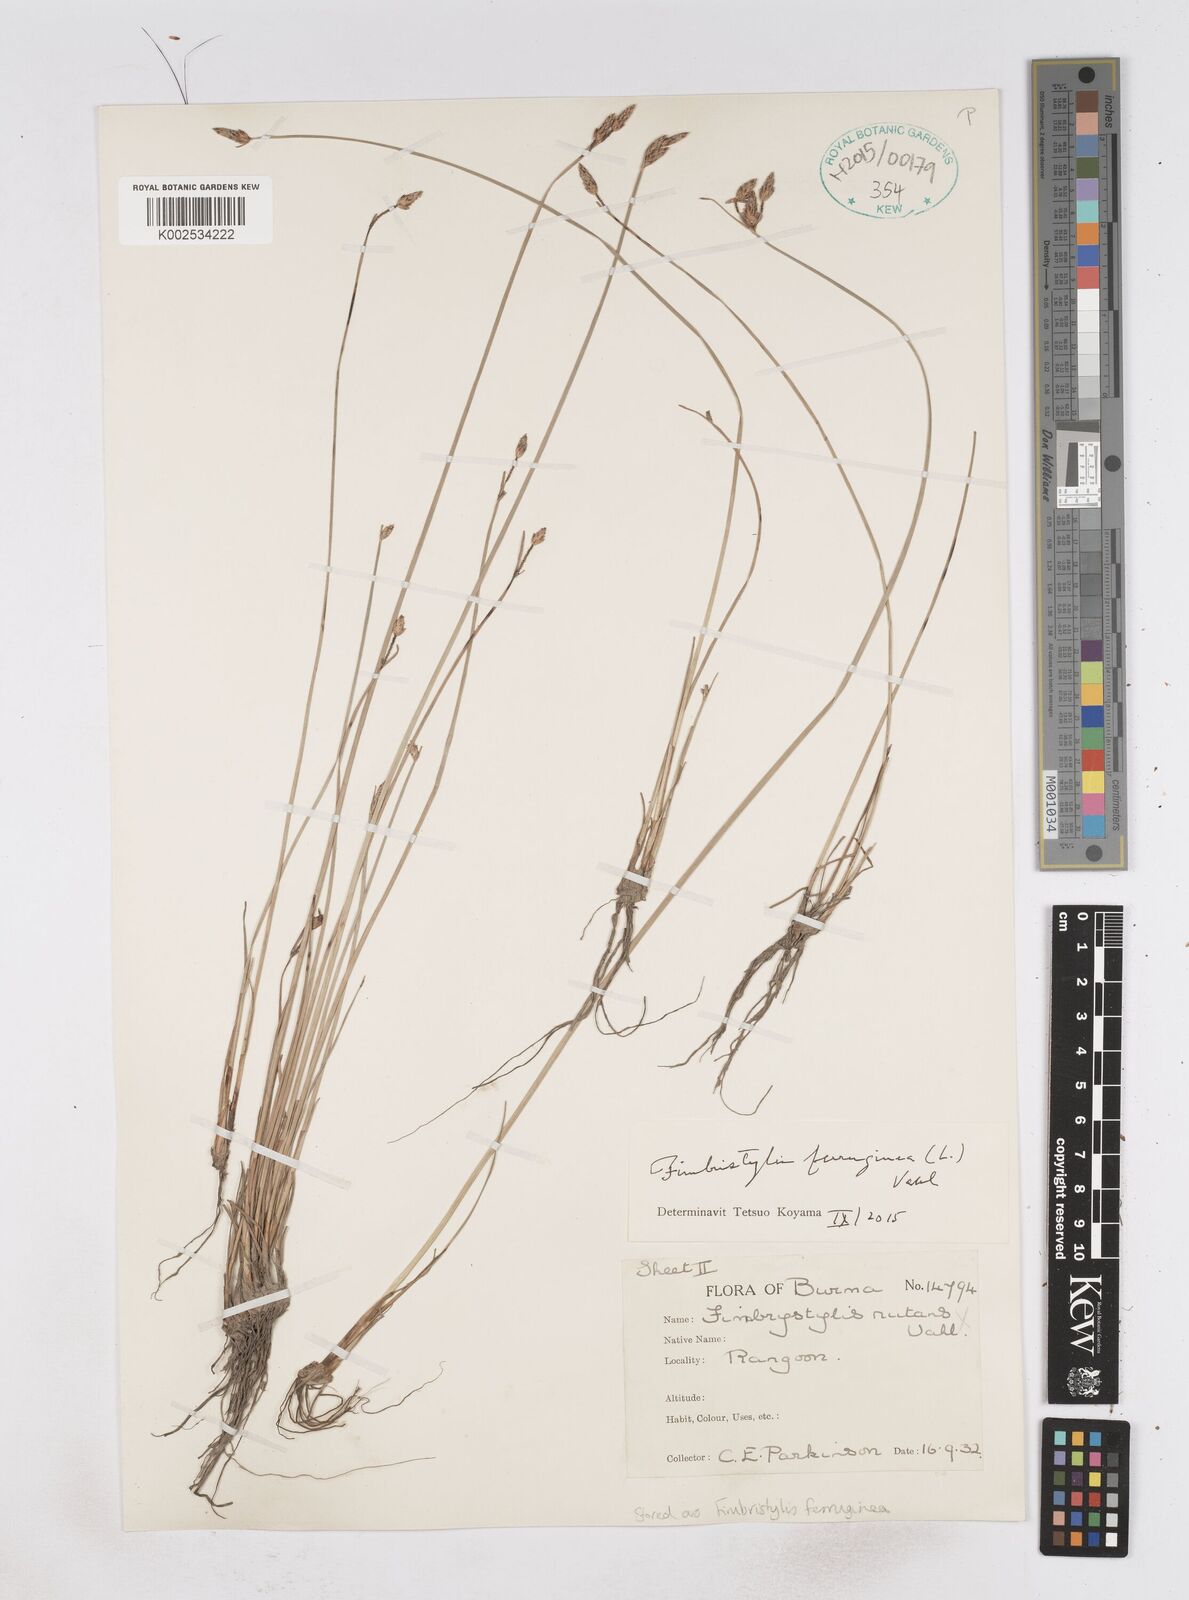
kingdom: Plantae
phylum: Tracheophyta
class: Liliopsida
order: Poales
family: Cyperaceae
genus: Fimbristylis
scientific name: Fimbristylis ferruginea
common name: West indian fimbry
